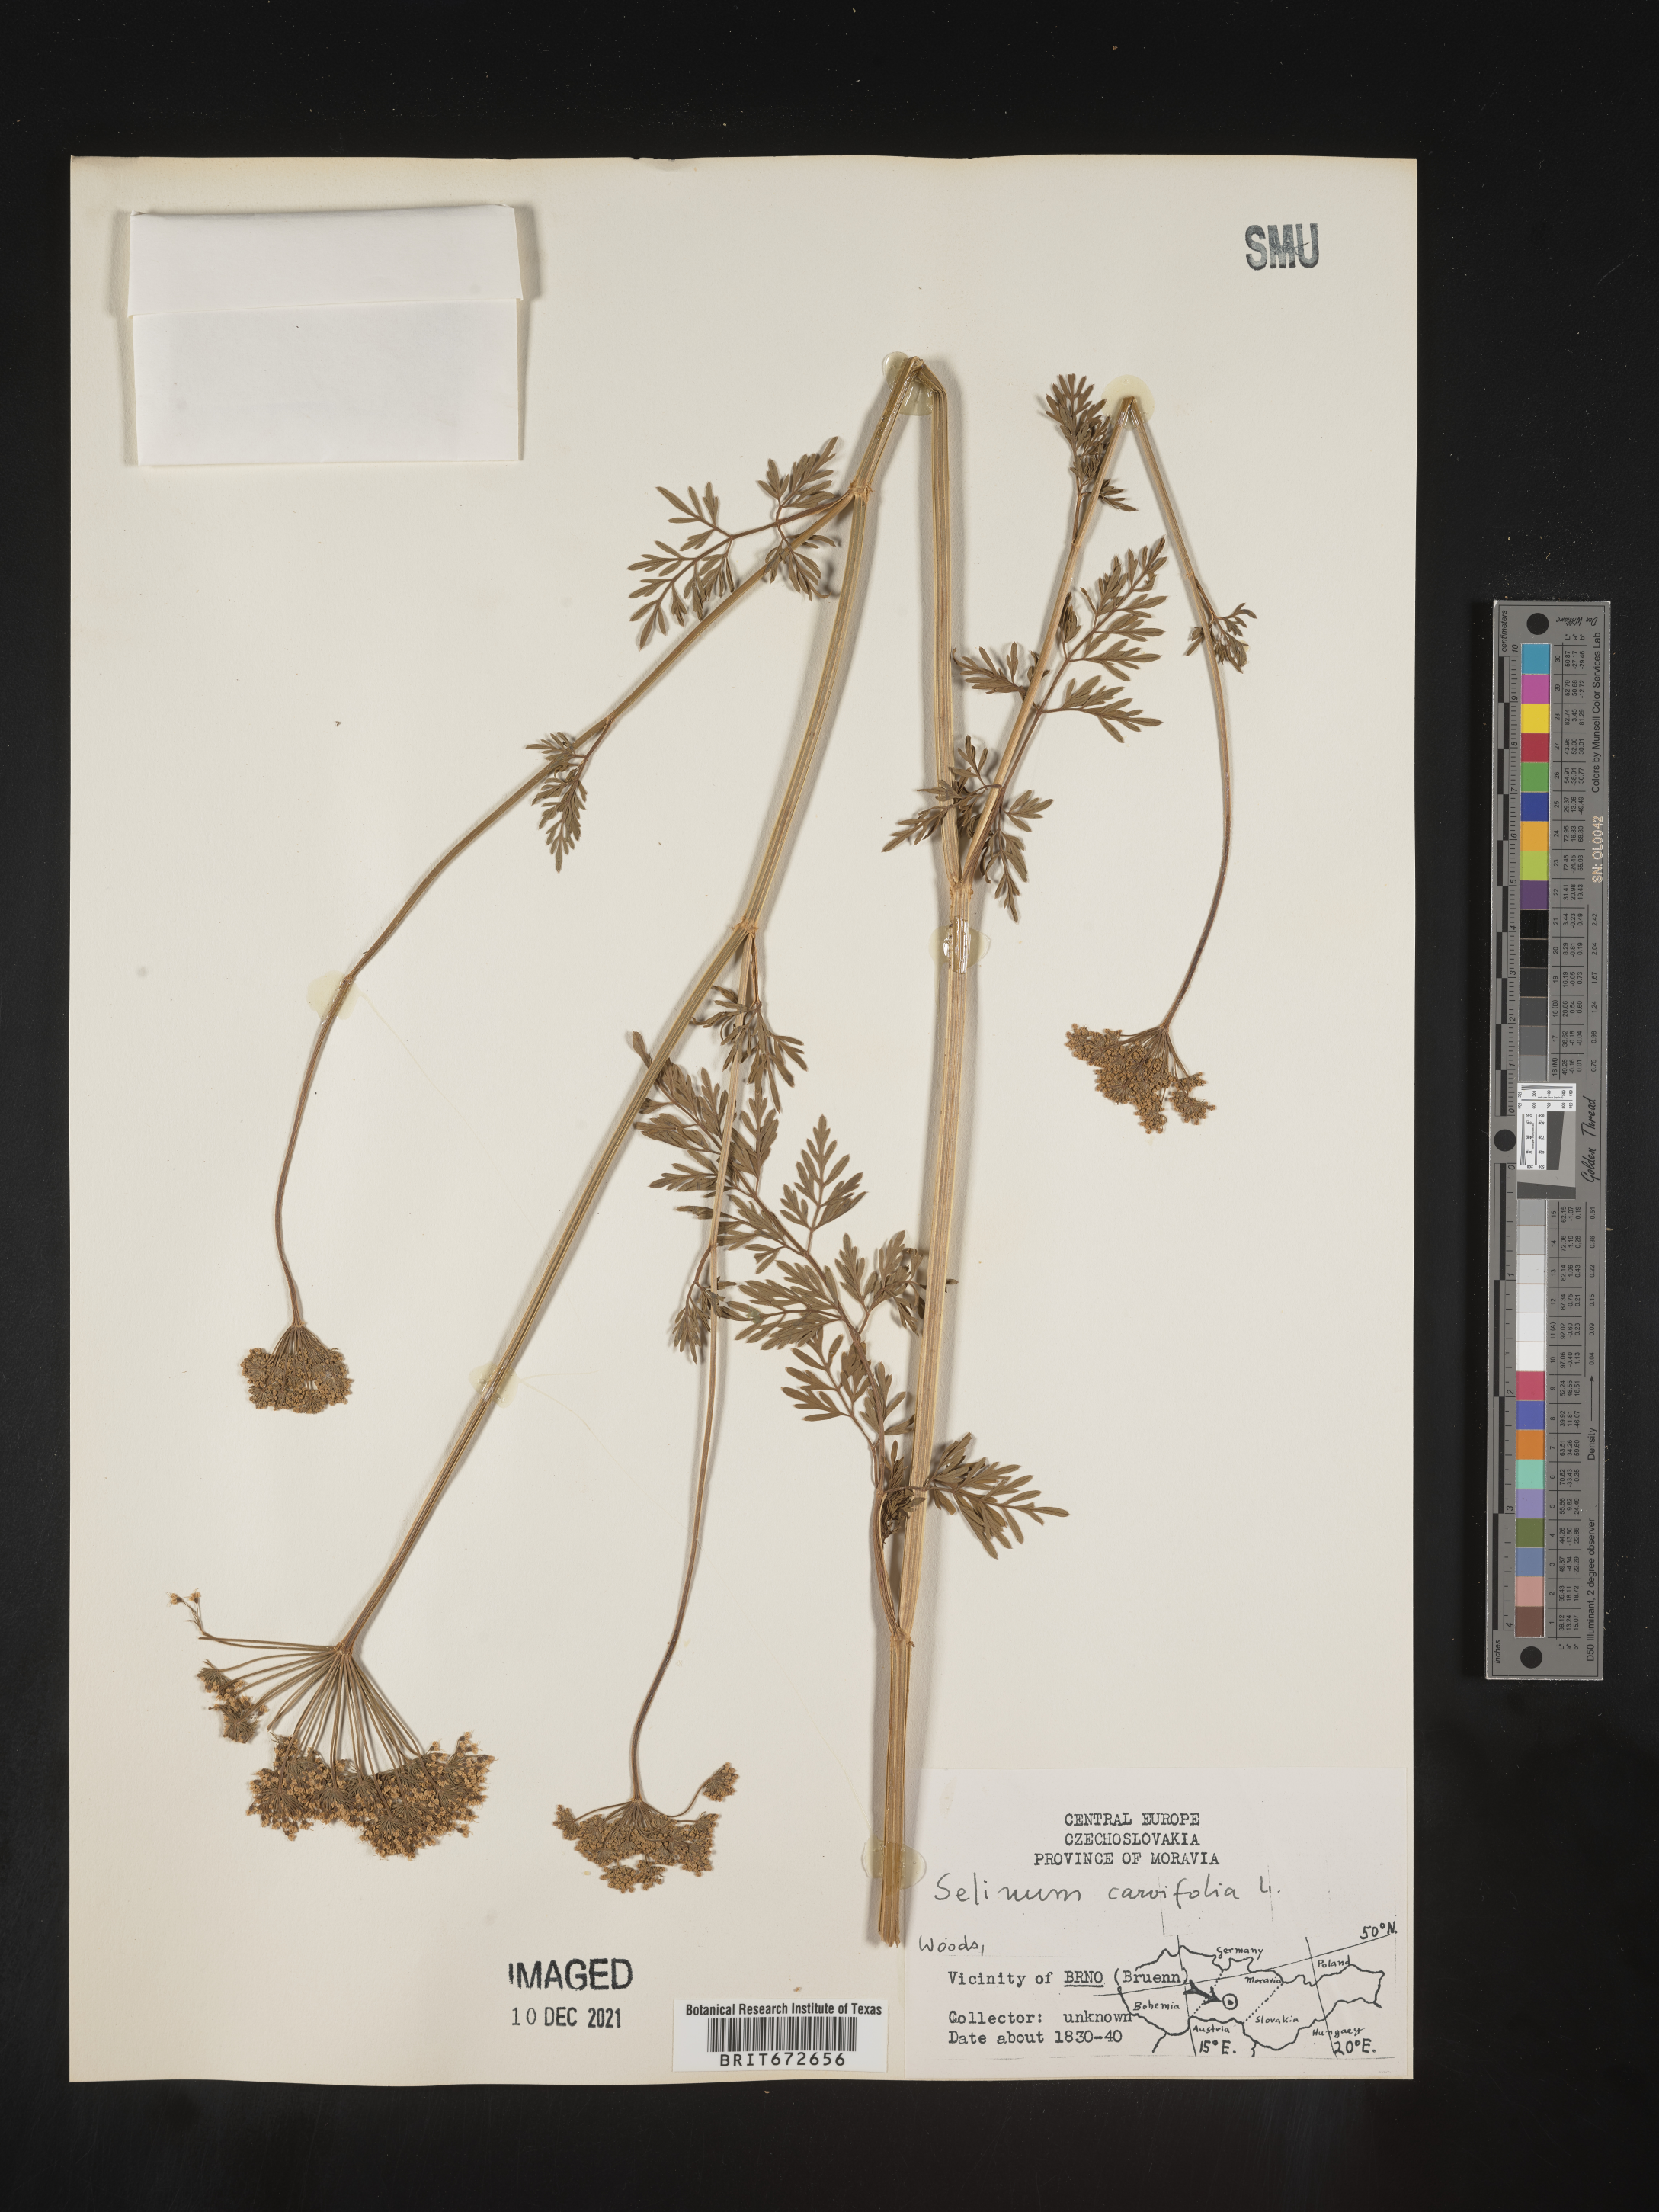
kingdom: Plantae
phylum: Tracheophyta
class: Magnoliopsida
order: Apiales
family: Apiaceae
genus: Selinum
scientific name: Selinum
